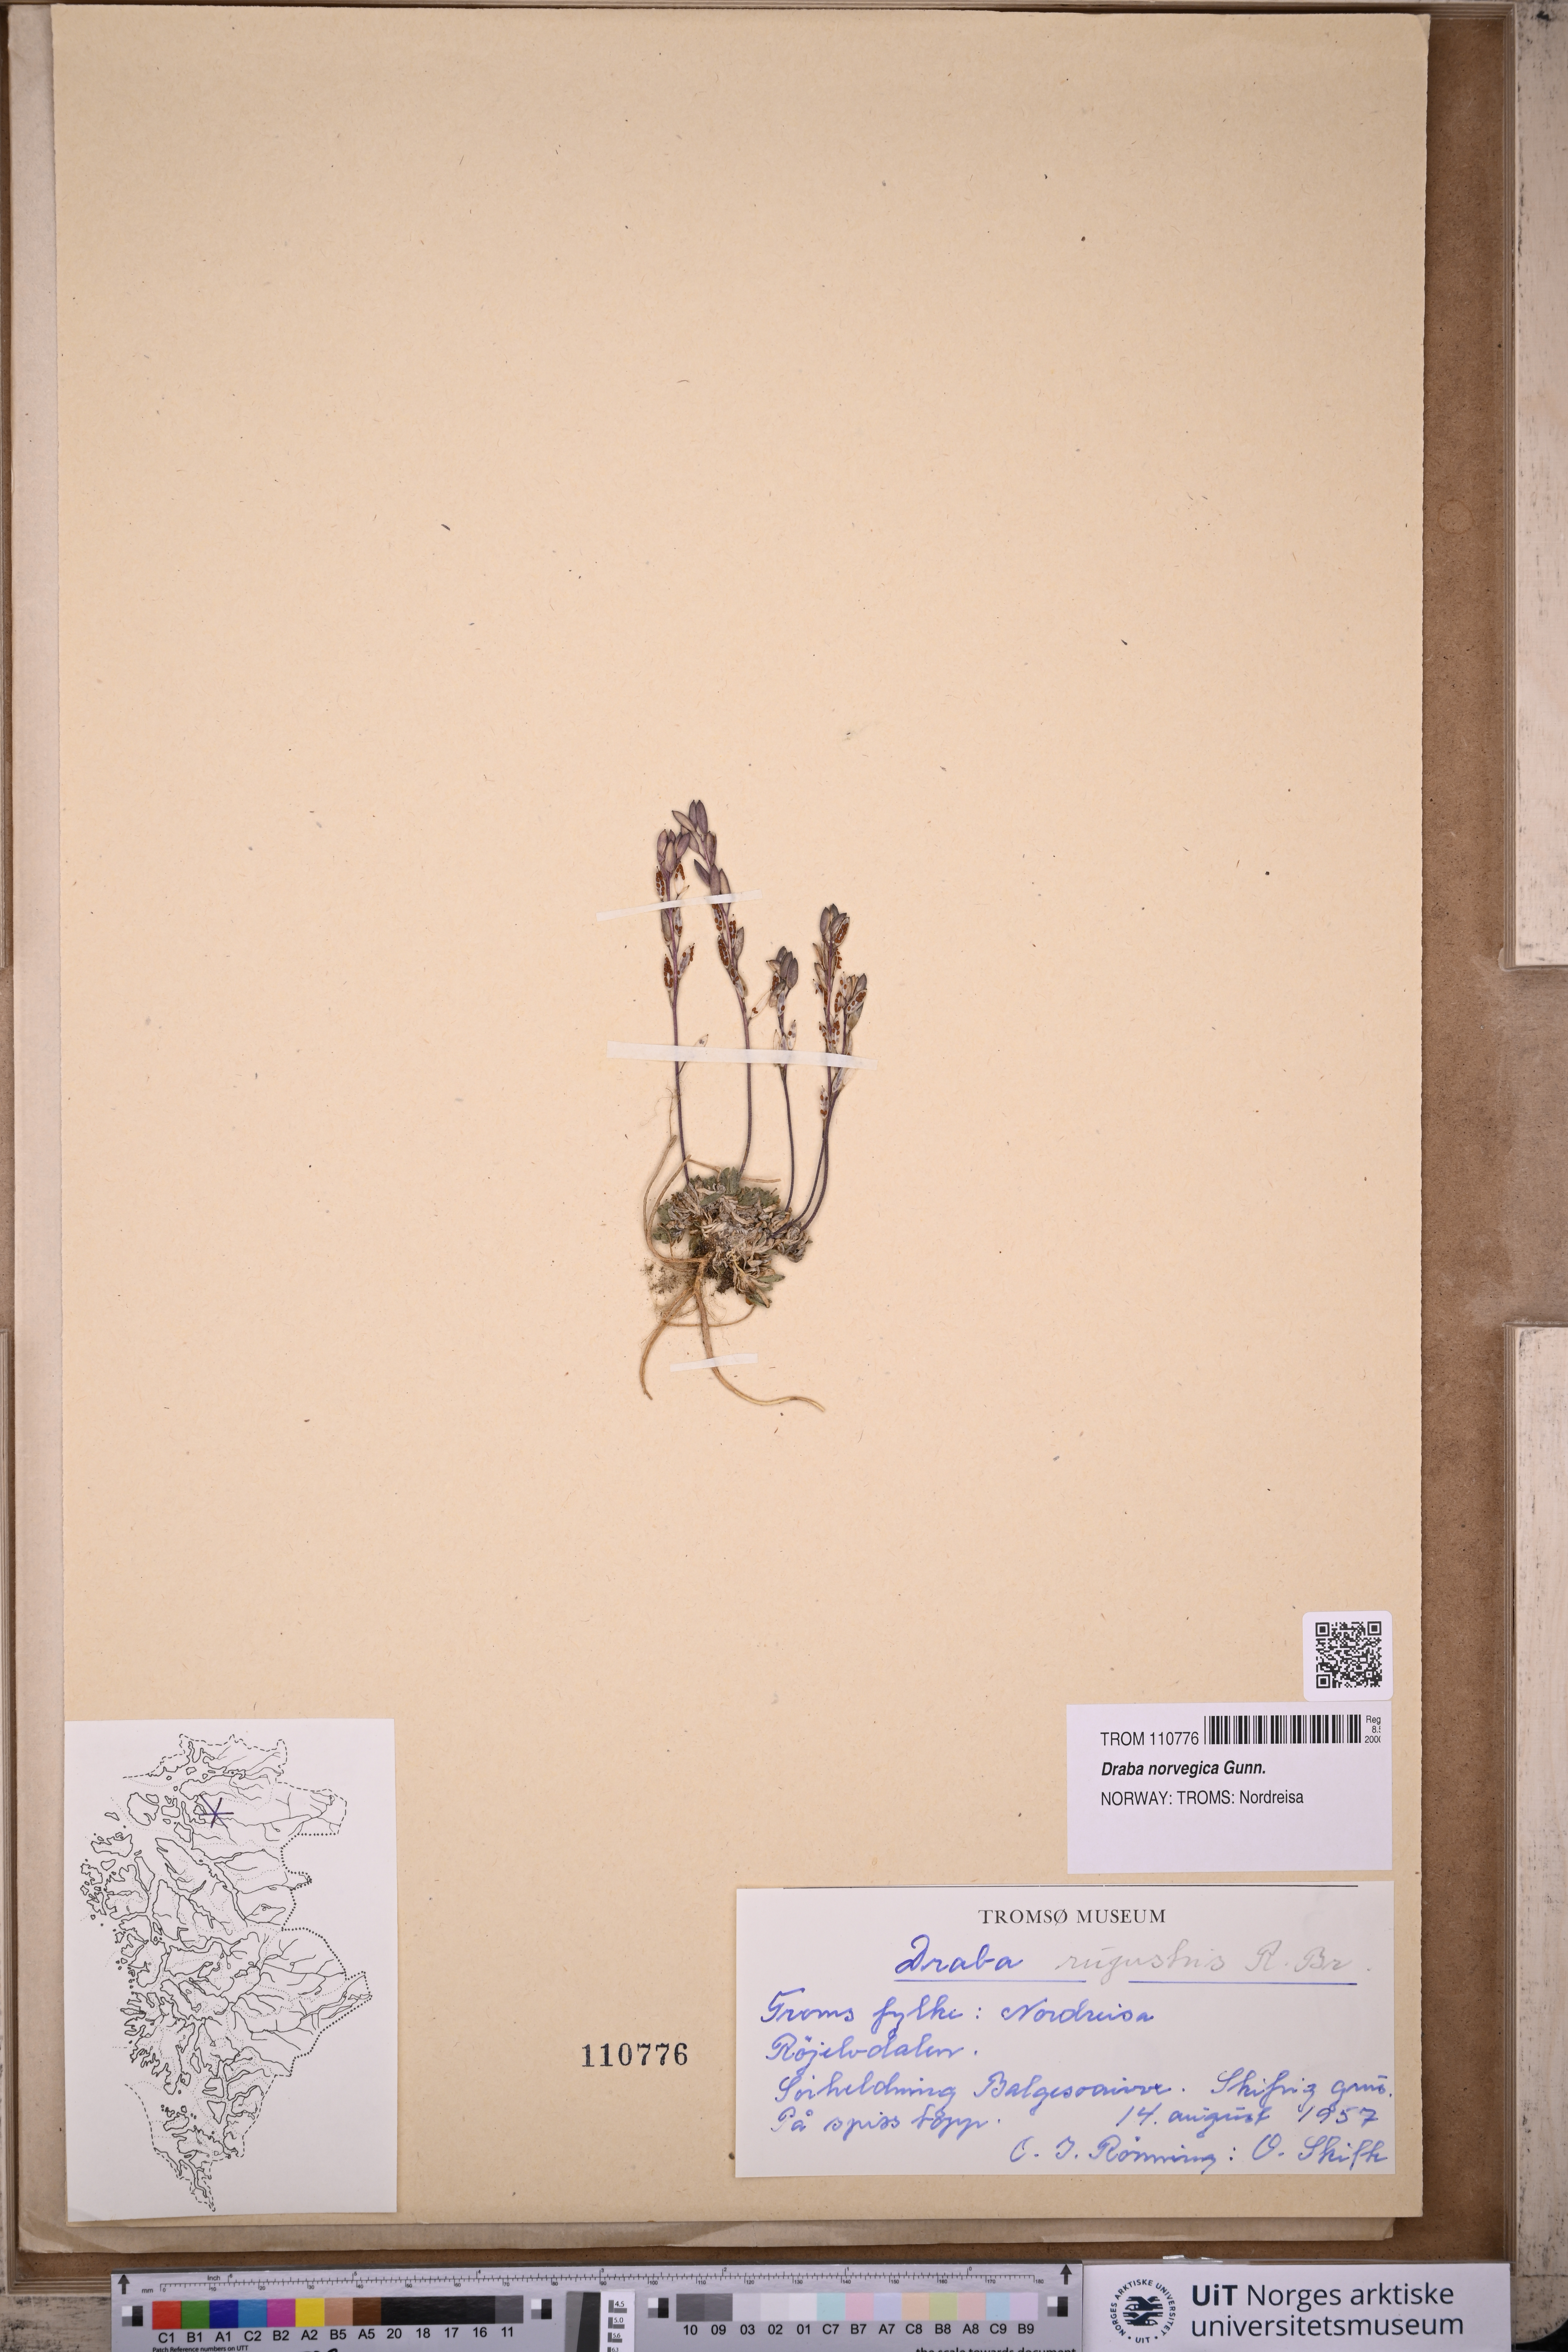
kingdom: Plantae
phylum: Tracheophyta
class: Magnoliopsida
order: Brassicales
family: Brassicaceae
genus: Draba
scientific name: Draba norvegica
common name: Rock whitlowgrass
